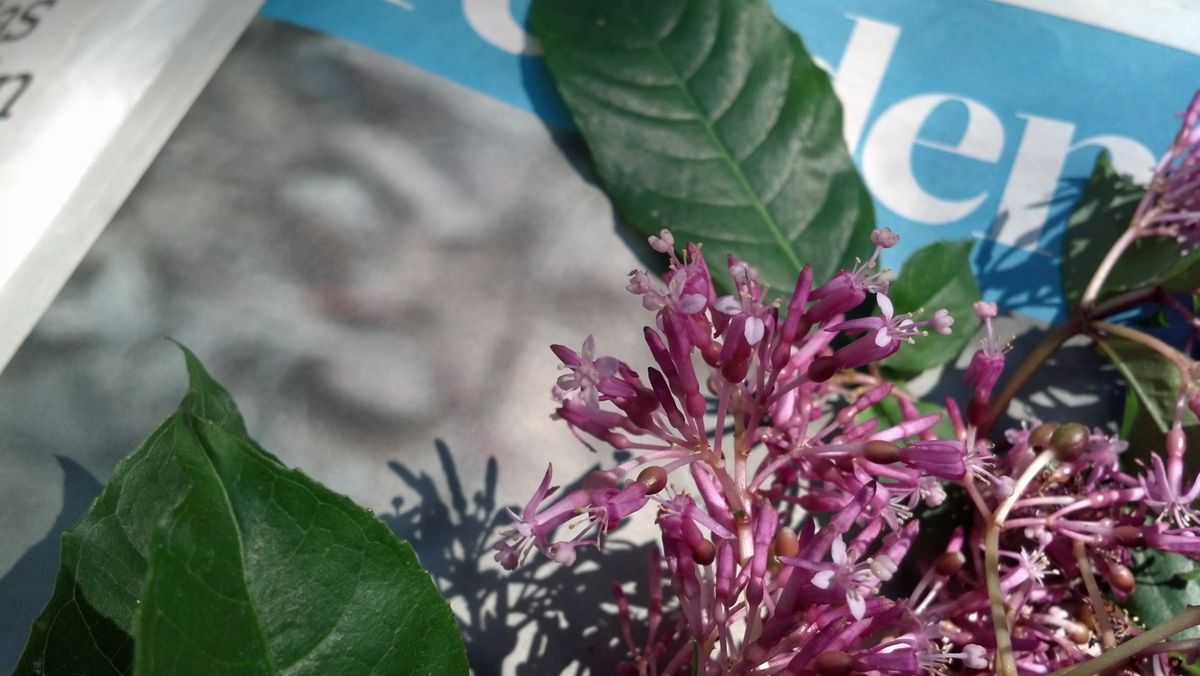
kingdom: Plantae
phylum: Tracheophyta
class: Magnoliopsida
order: Myrtales
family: Onagraceae
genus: Fuchsia
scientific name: Fuchsia paniculata
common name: Shrubby fuchsia
